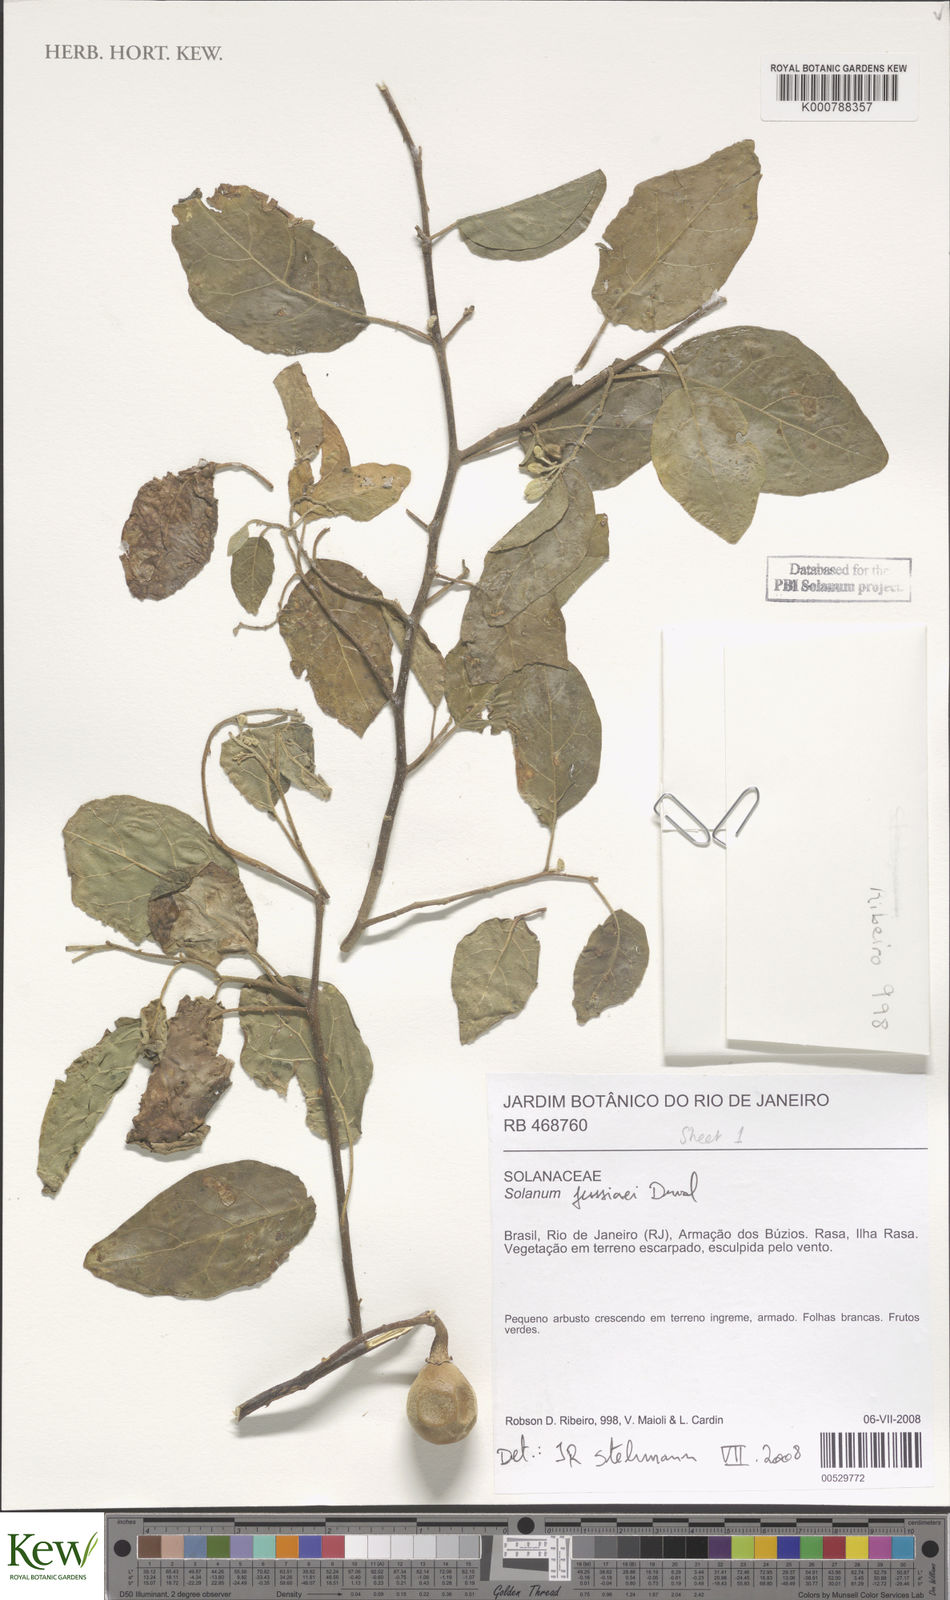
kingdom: Plantae
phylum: Tracheophyta
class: Magnoliopsida
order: Solanales
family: Solanaceae
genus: Solanum
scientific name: Solanum jussiaei
